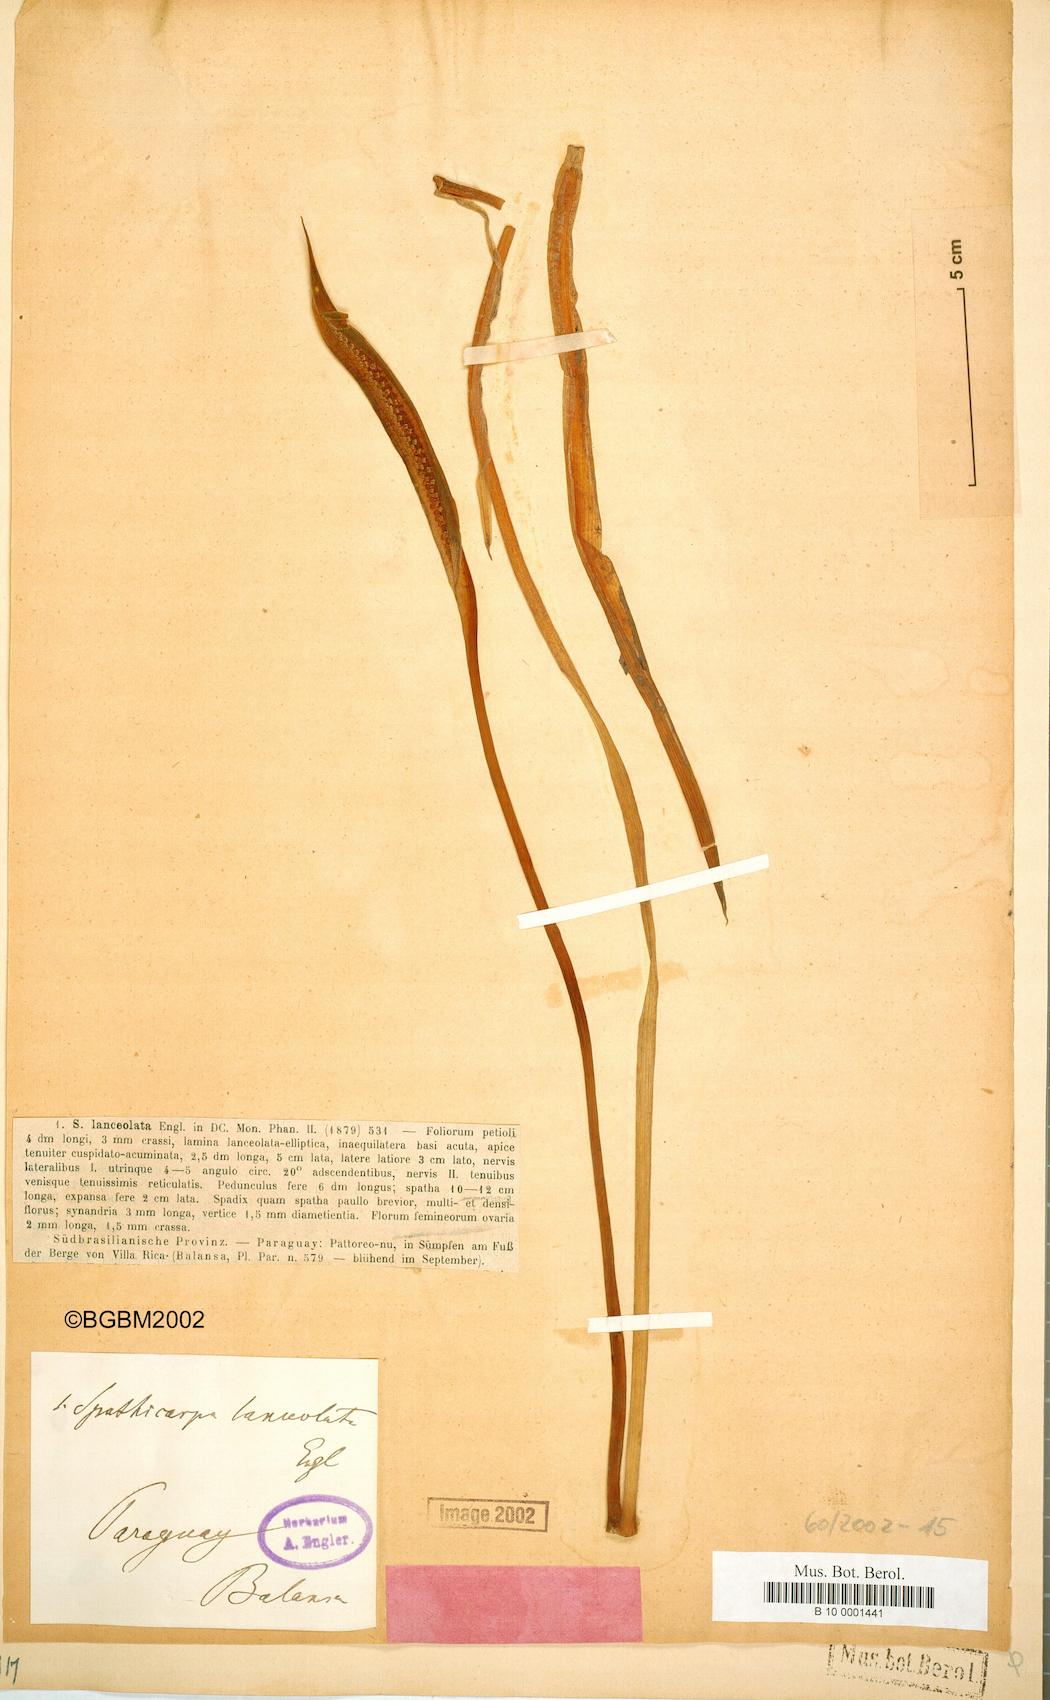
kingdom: Plantae
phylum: Tracheophyta
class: Liliopsida
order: Alismatales
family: Araceae
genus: Spathicarpa
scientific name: Spathicarpa lanceolata
